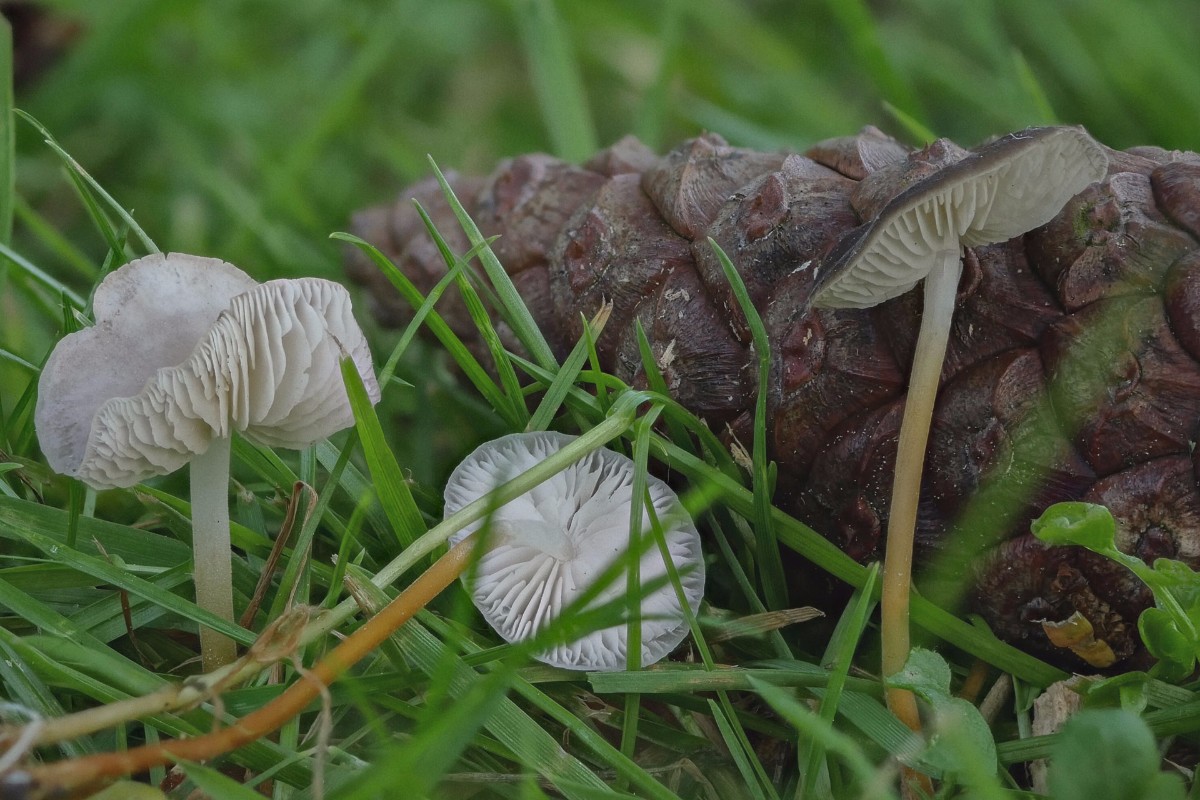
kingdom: Fungi
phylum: Basidiomycota
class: Agaricomycetes
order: Agaricales
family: Physalacriaceae
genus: Strobilurus
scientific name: Strobilurus
